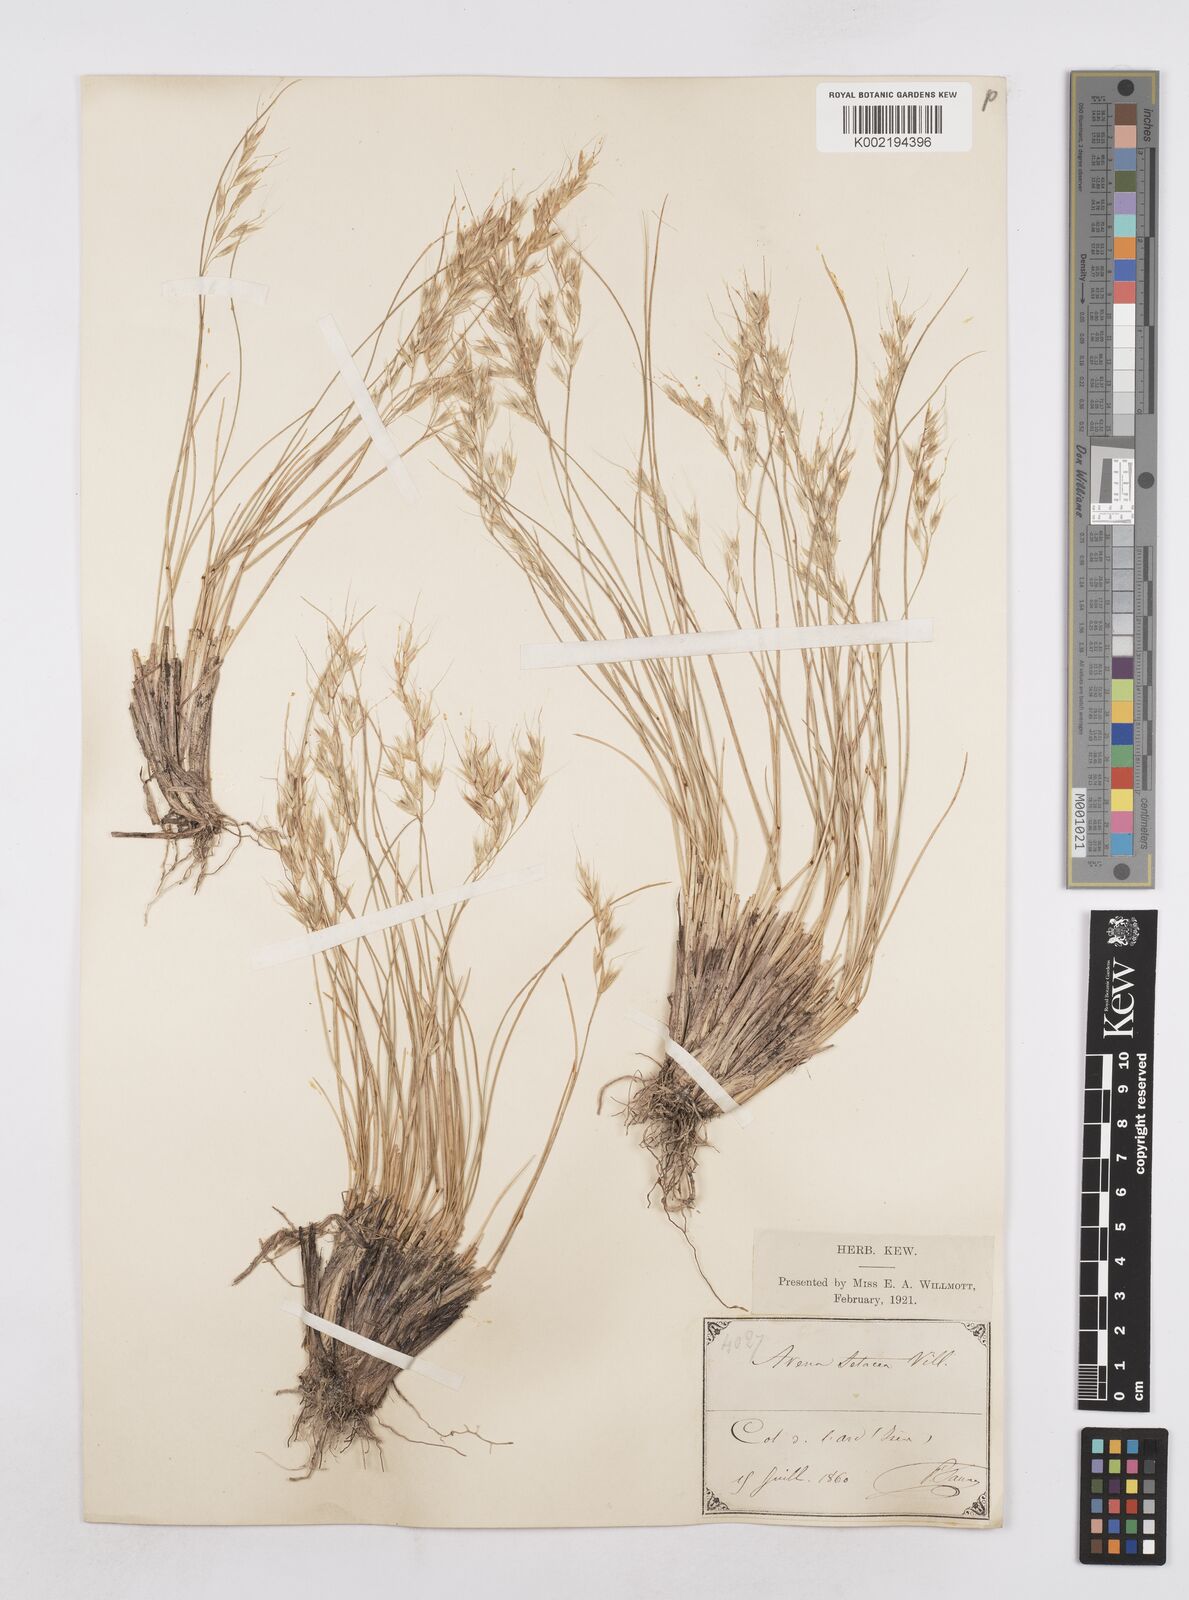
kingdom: Plantae
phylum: Tracheophyta
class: Liliopsida
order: Poales
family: Poaceae
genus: Helictotrichon
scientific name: Helictotrichon setaceum
